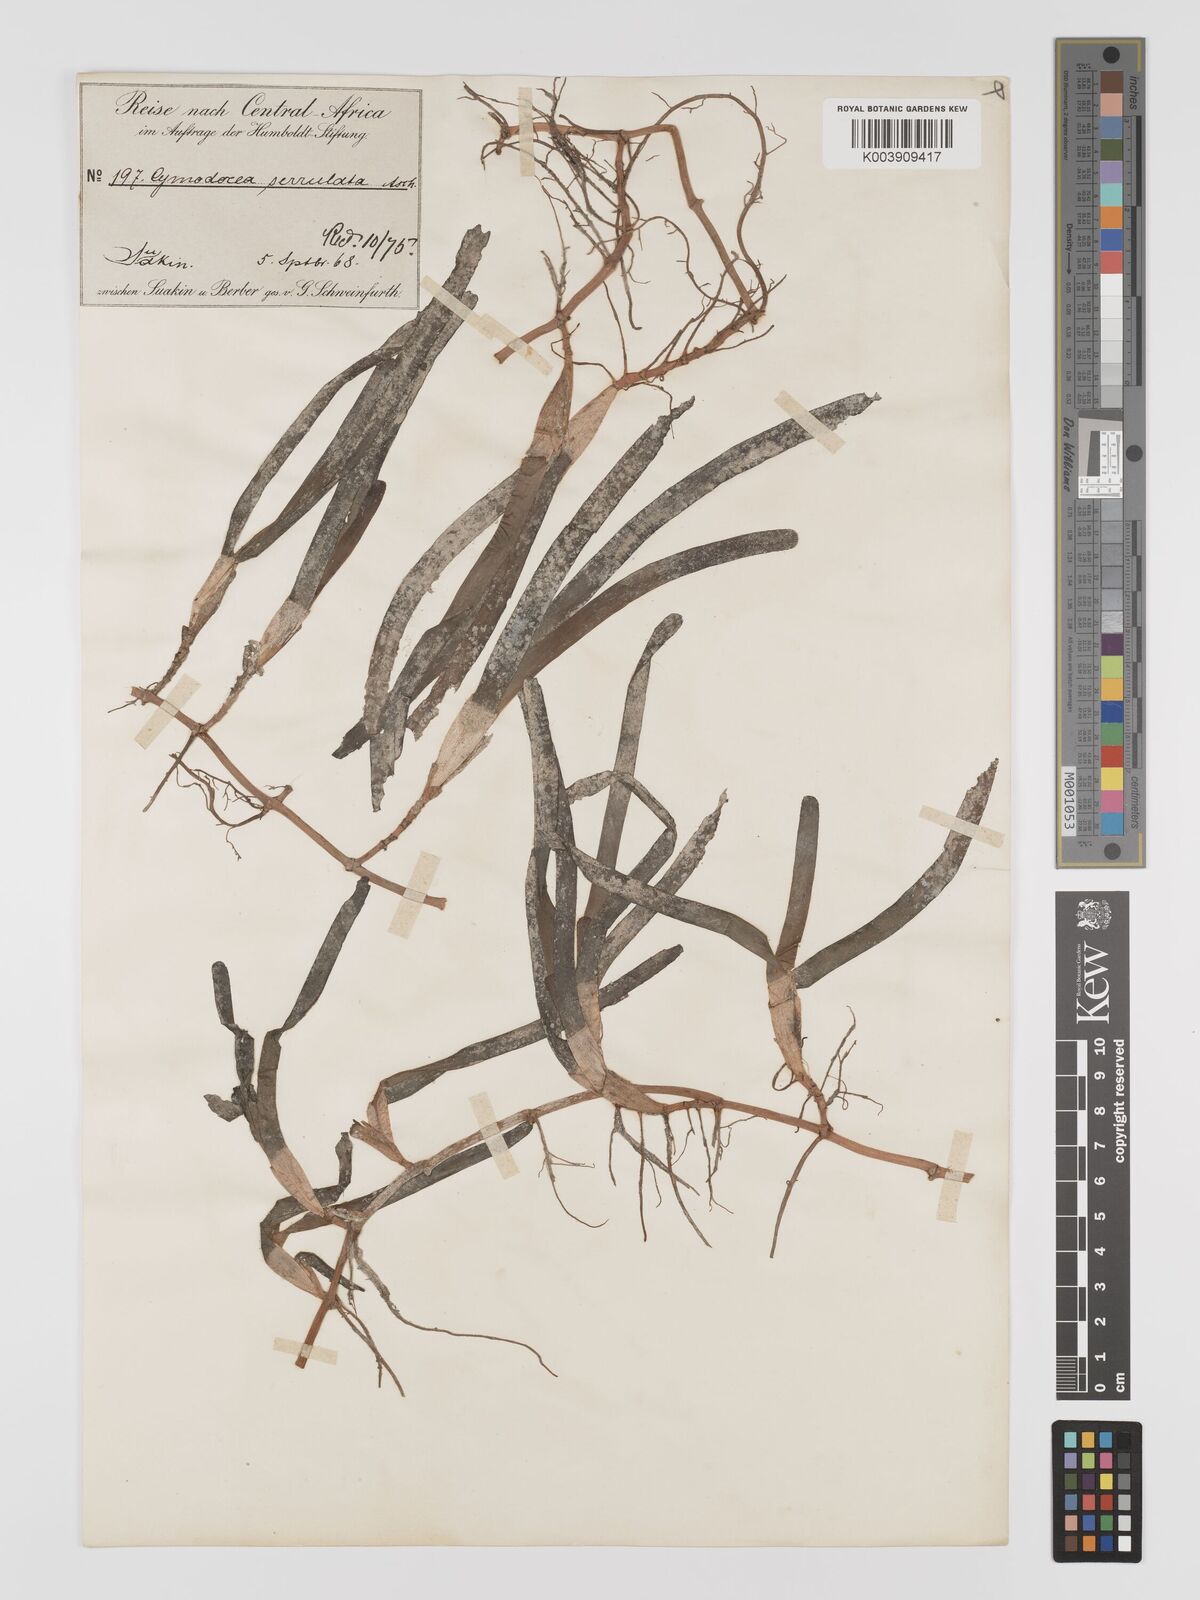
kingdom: Plantae
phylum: Tracheophyta
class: Liliopsida
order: Alismatales
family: Cymodoceaceae
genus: Oceana
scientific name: Oceana serrulata
